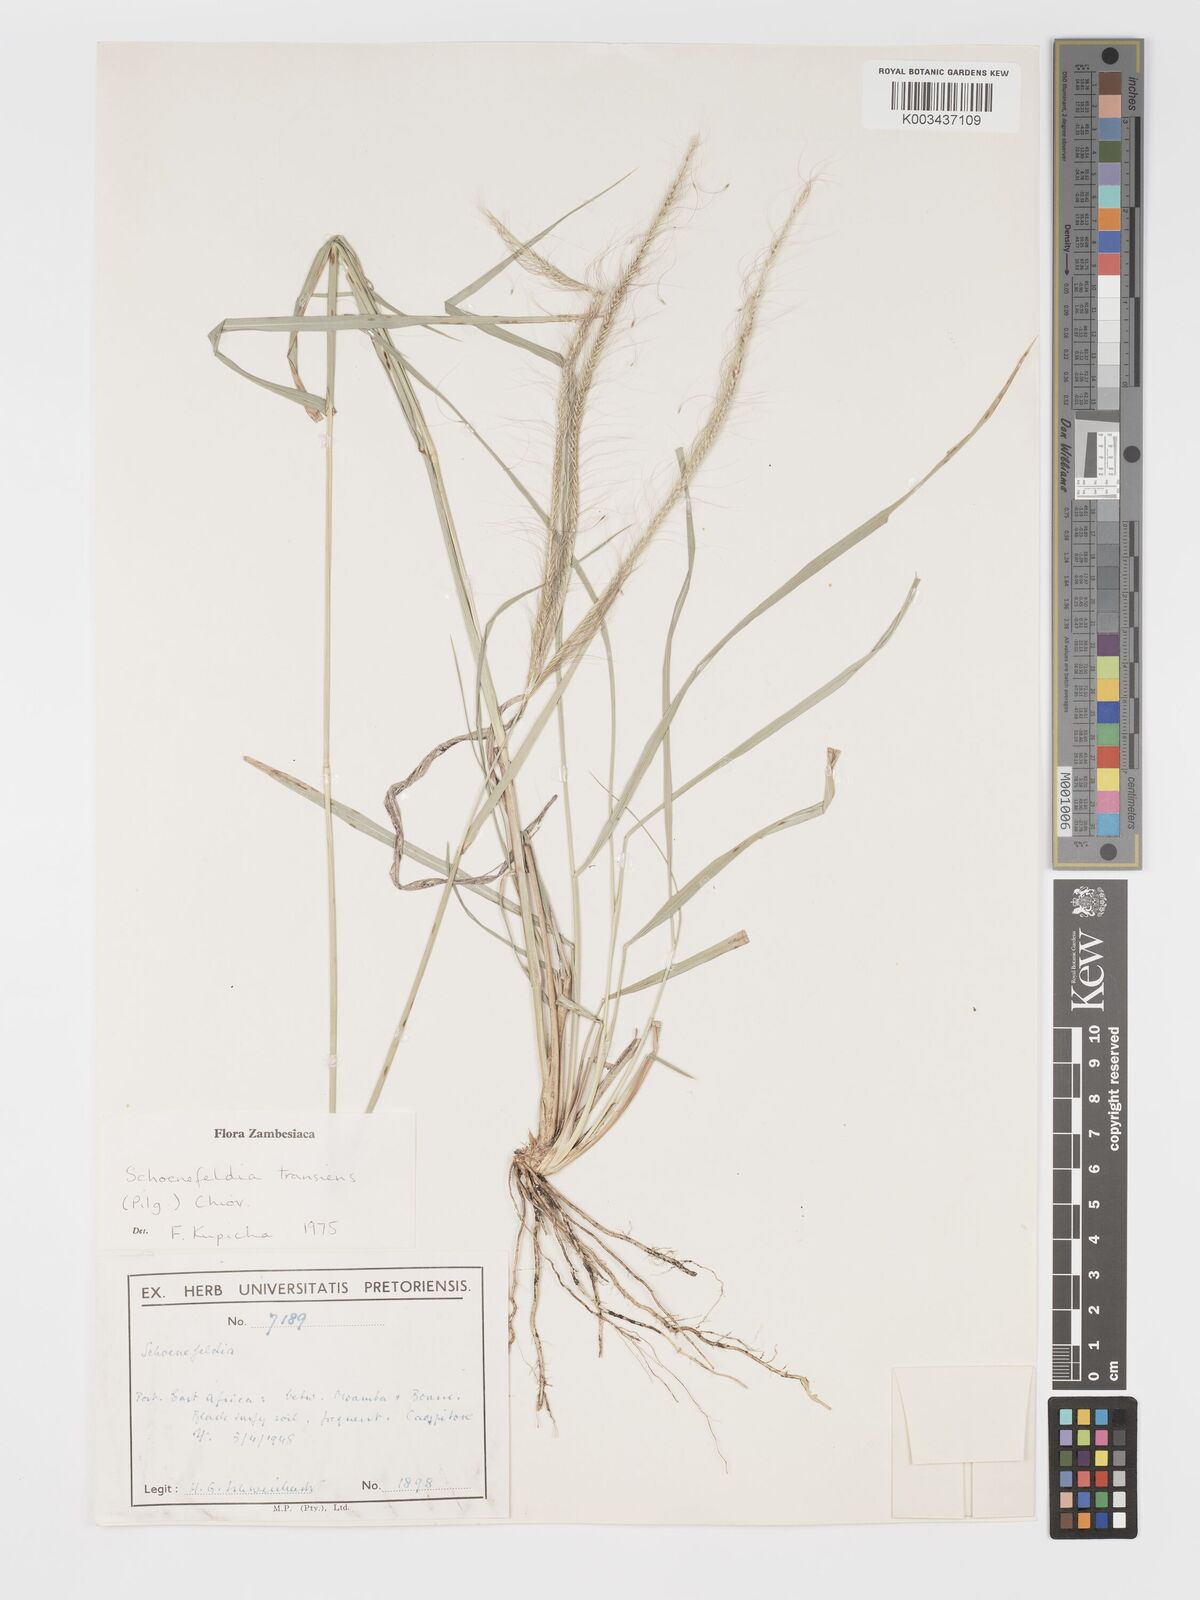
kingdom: Plantae
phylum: Tracheophyta
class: Liliopsida
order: Poales
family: Poaceae
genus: Schoenefeldia
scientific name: Schoenefeldia transiens
